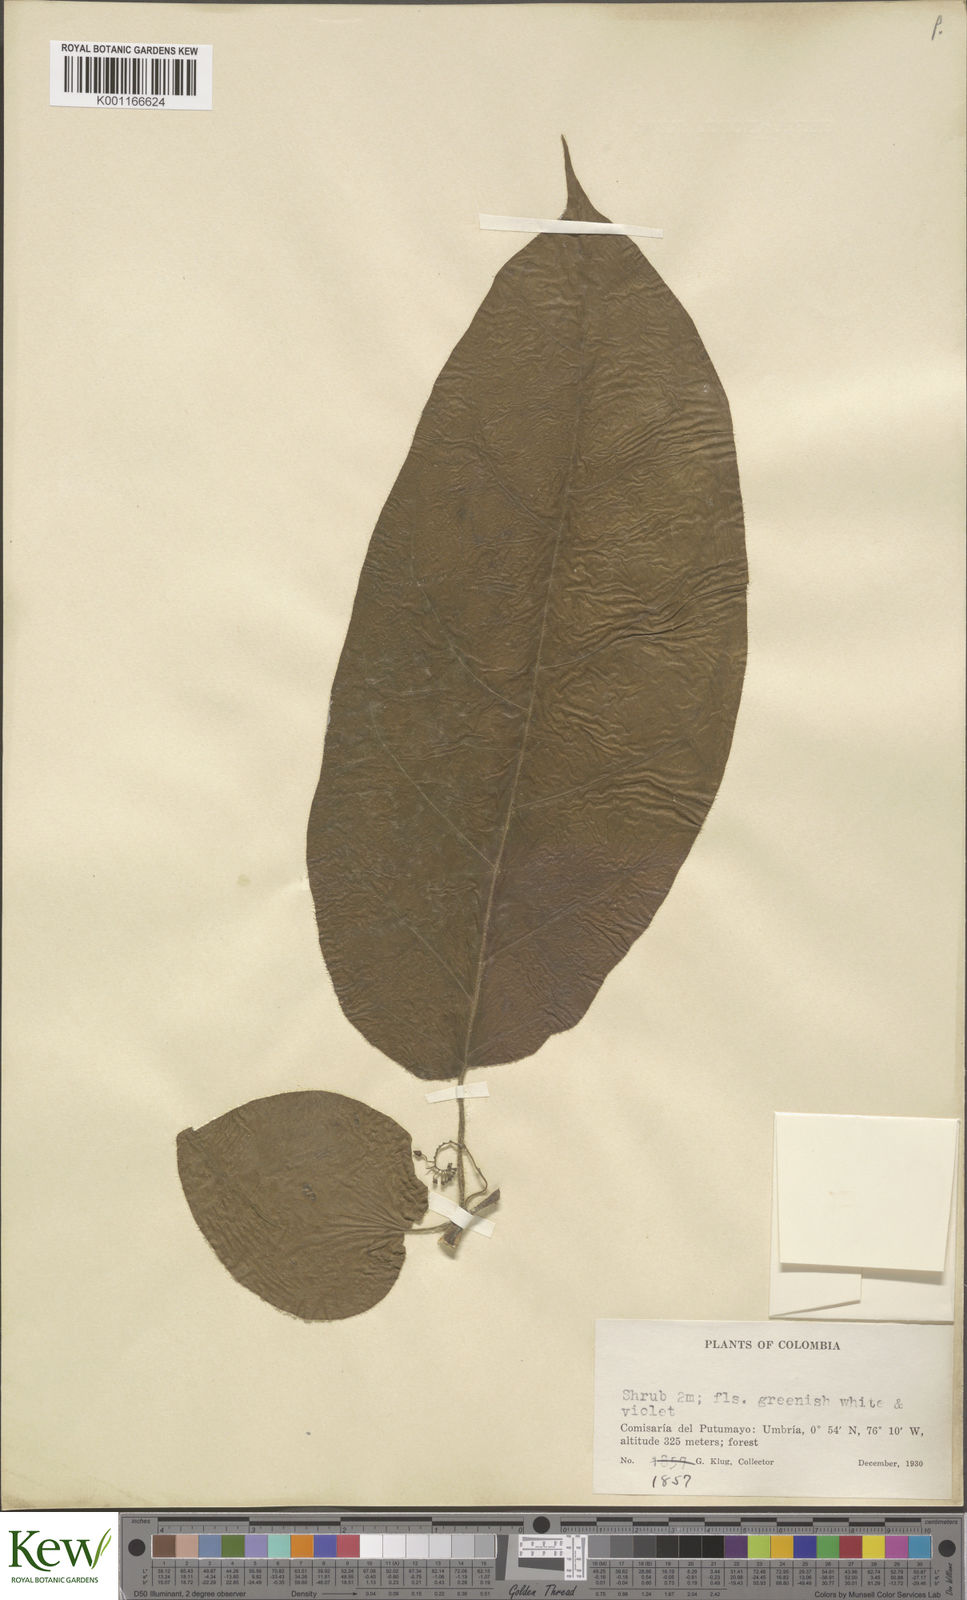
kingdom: Plantae
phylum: Tracheophyta
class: Magnoliopsida
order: Solanales
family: Solanaceae
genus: Solanum
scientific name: Solanum
